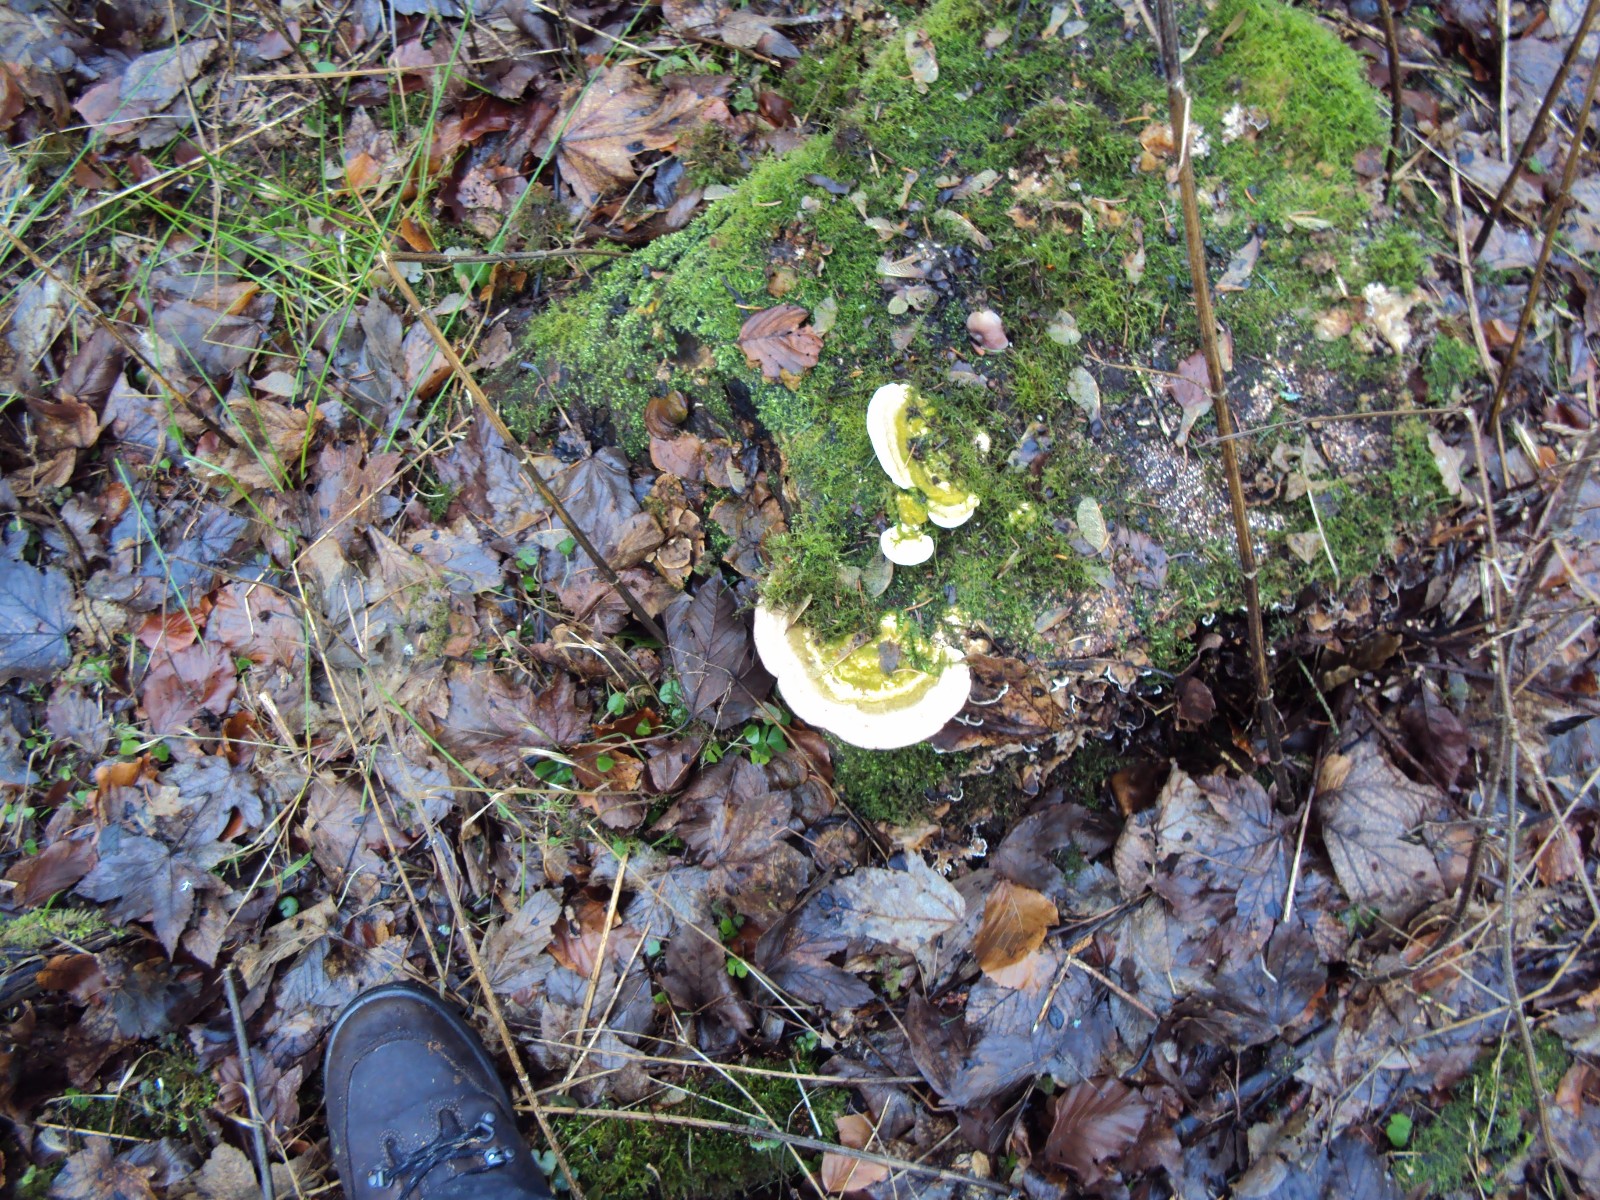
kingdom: Fungi
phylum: Basidiomycota
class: Agaricomycetes
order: Polyporales
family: Polyporaceae
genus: Trametes
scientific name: Trametes gibbosa
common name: puklet læderporesvamp
